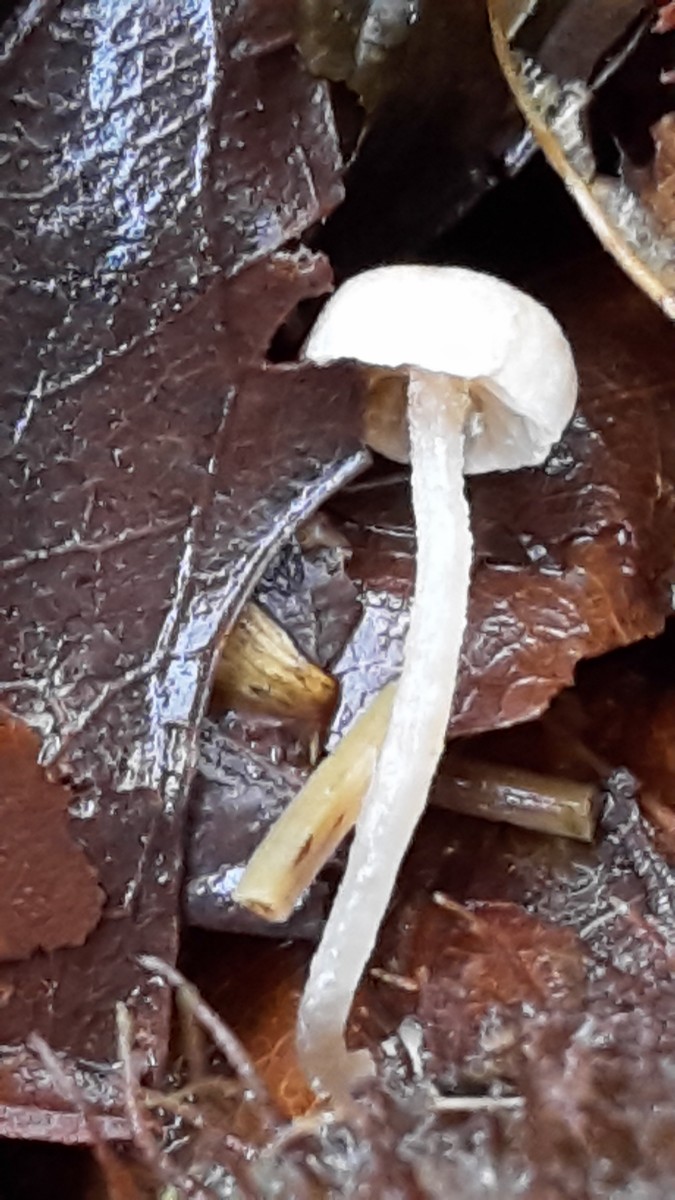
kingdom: Fungi
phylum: Basidiomycota
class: Agaricomycetes
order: Agaricales
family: Tubariaceae
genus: Flammulaster
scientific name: Flammulaster
